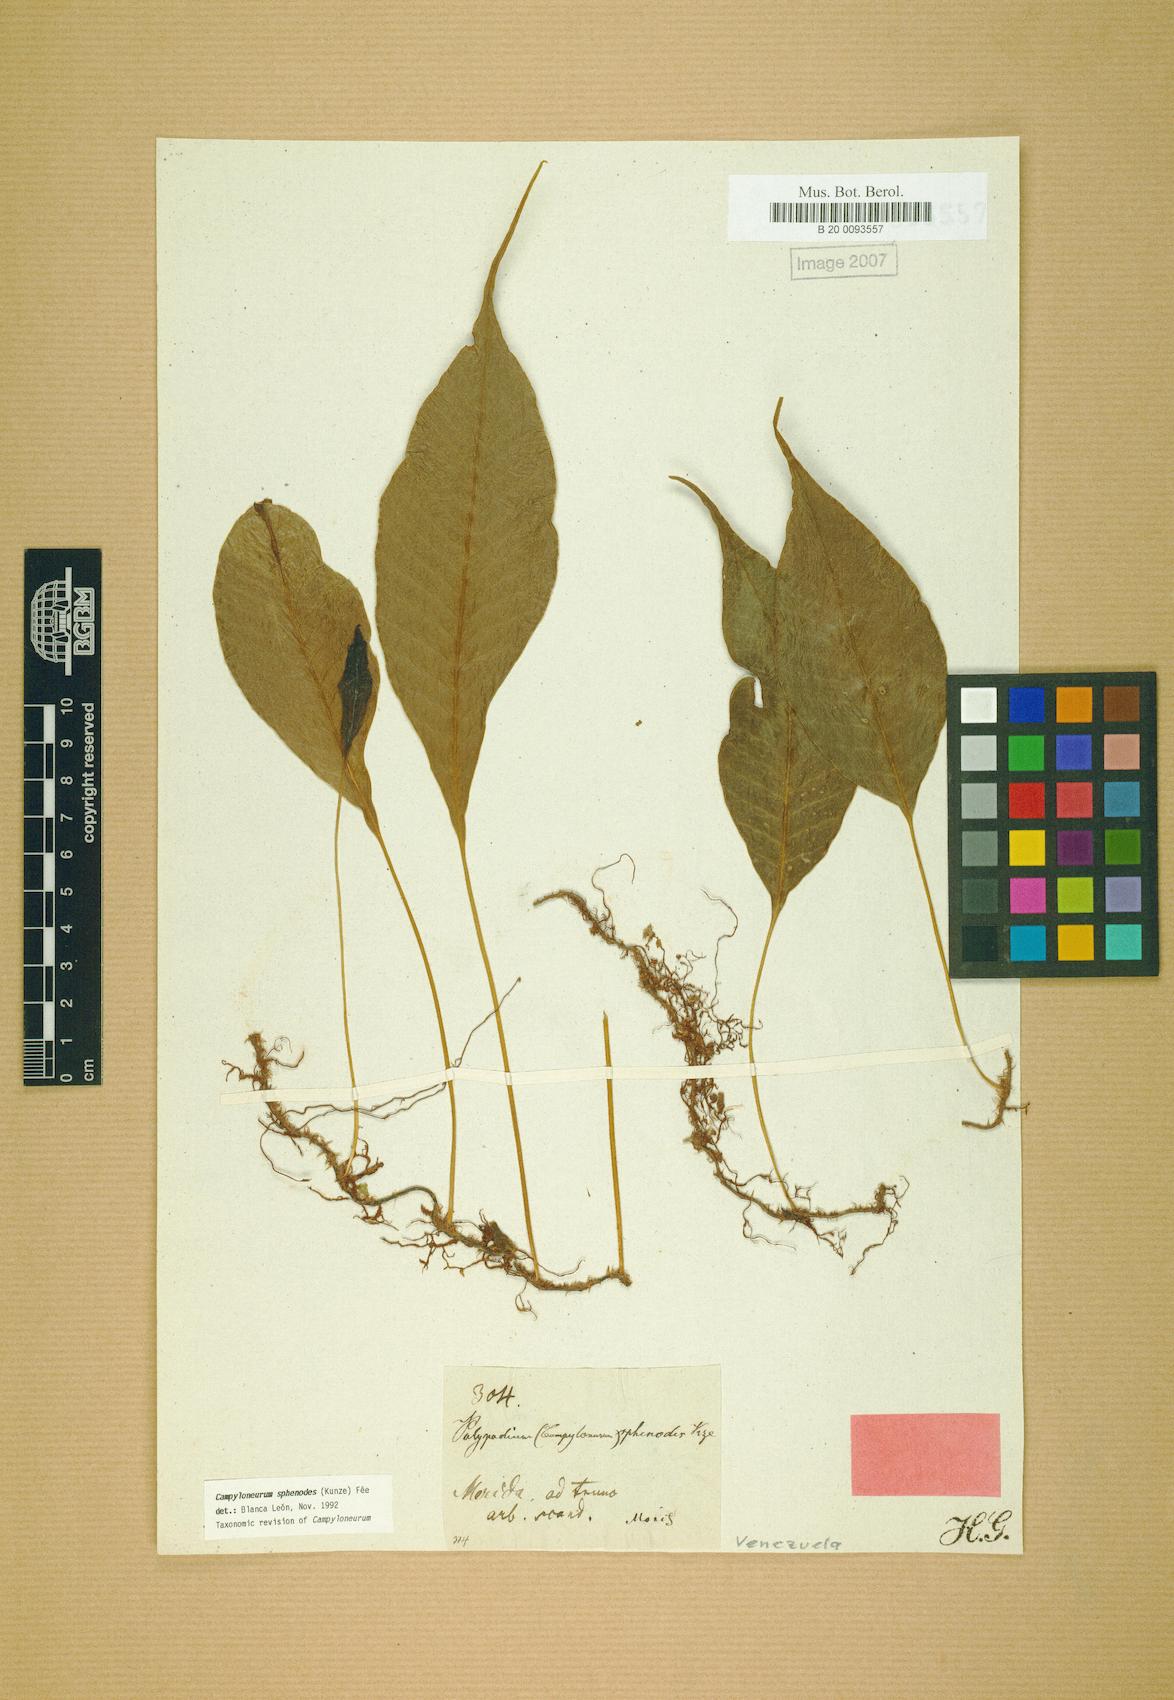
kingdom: Plantae
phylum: Tracheophyta
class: Polypodiopsida
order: Polypodiales
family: Polypodiaceae
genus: Campyloneurum
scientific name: Campyloneurum sphenodes
